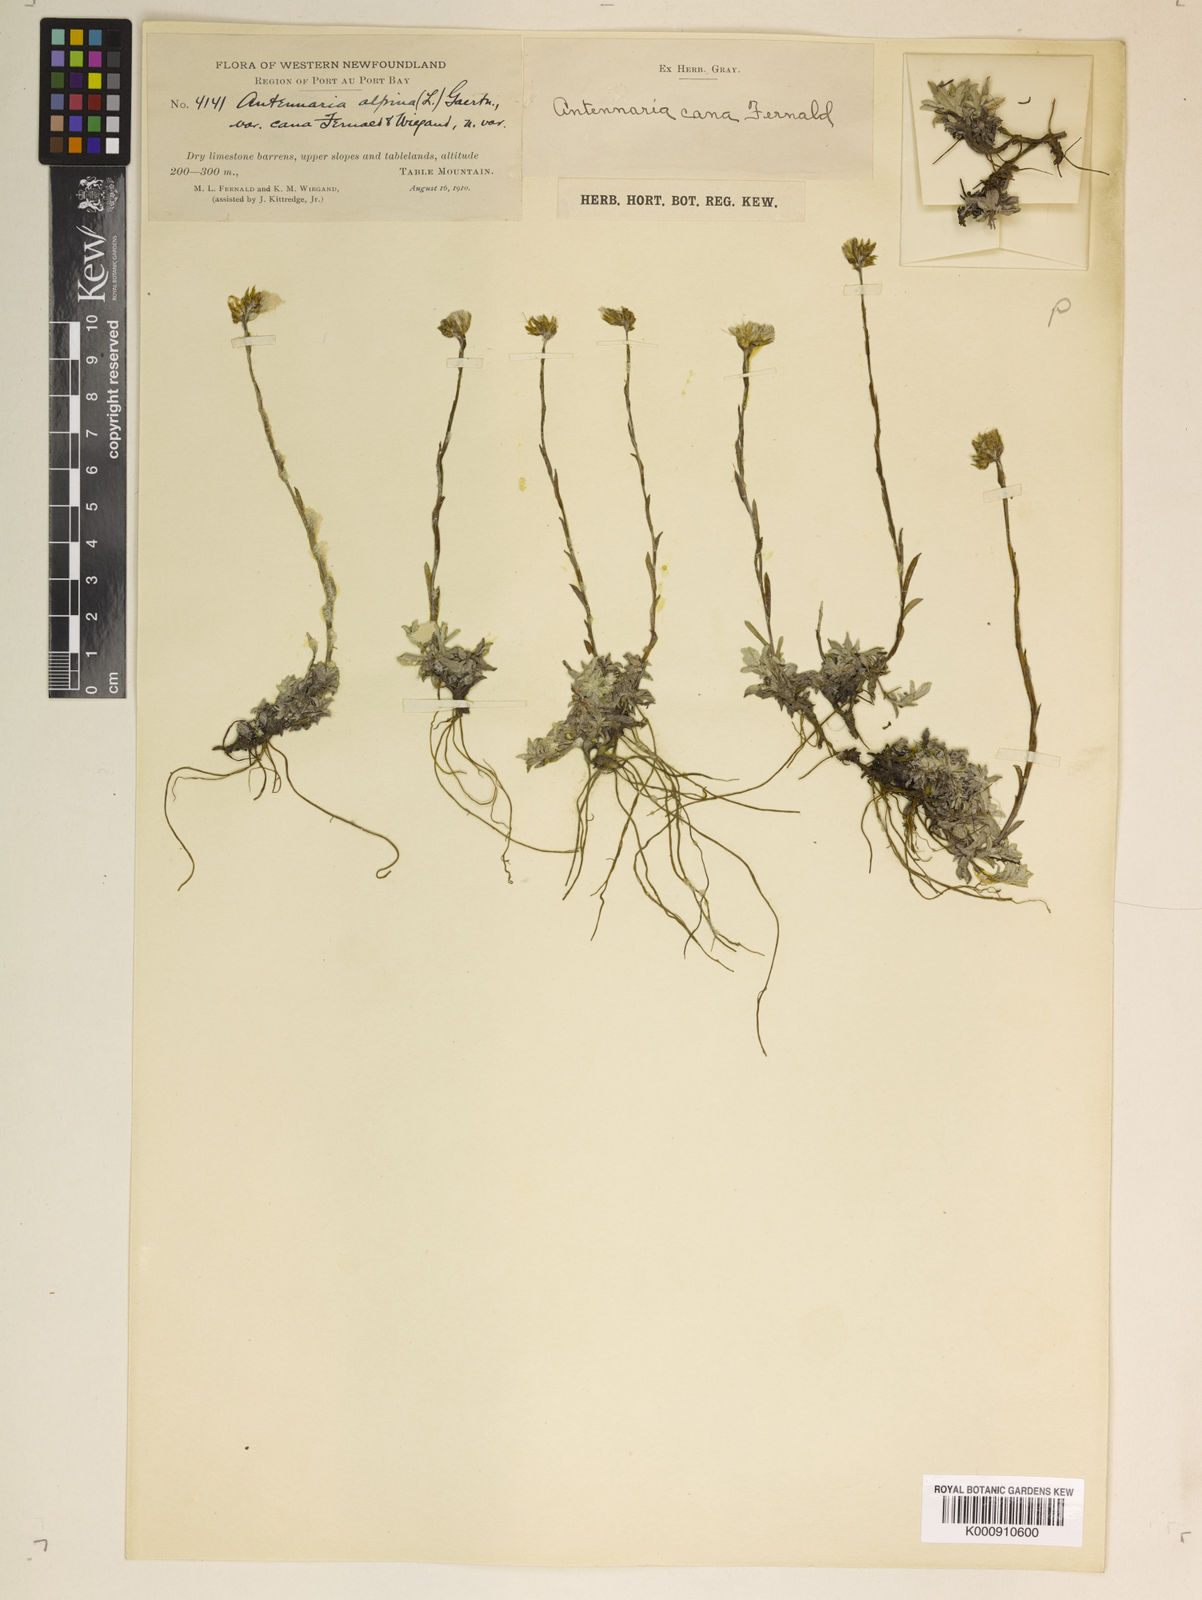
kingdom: Plantae
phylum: Tracheophyta
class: Magnoliopsida
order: Asterales
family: Asteraceae
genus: Antennaria
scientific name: Antennaria alpina
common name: Alpine pussytoes
